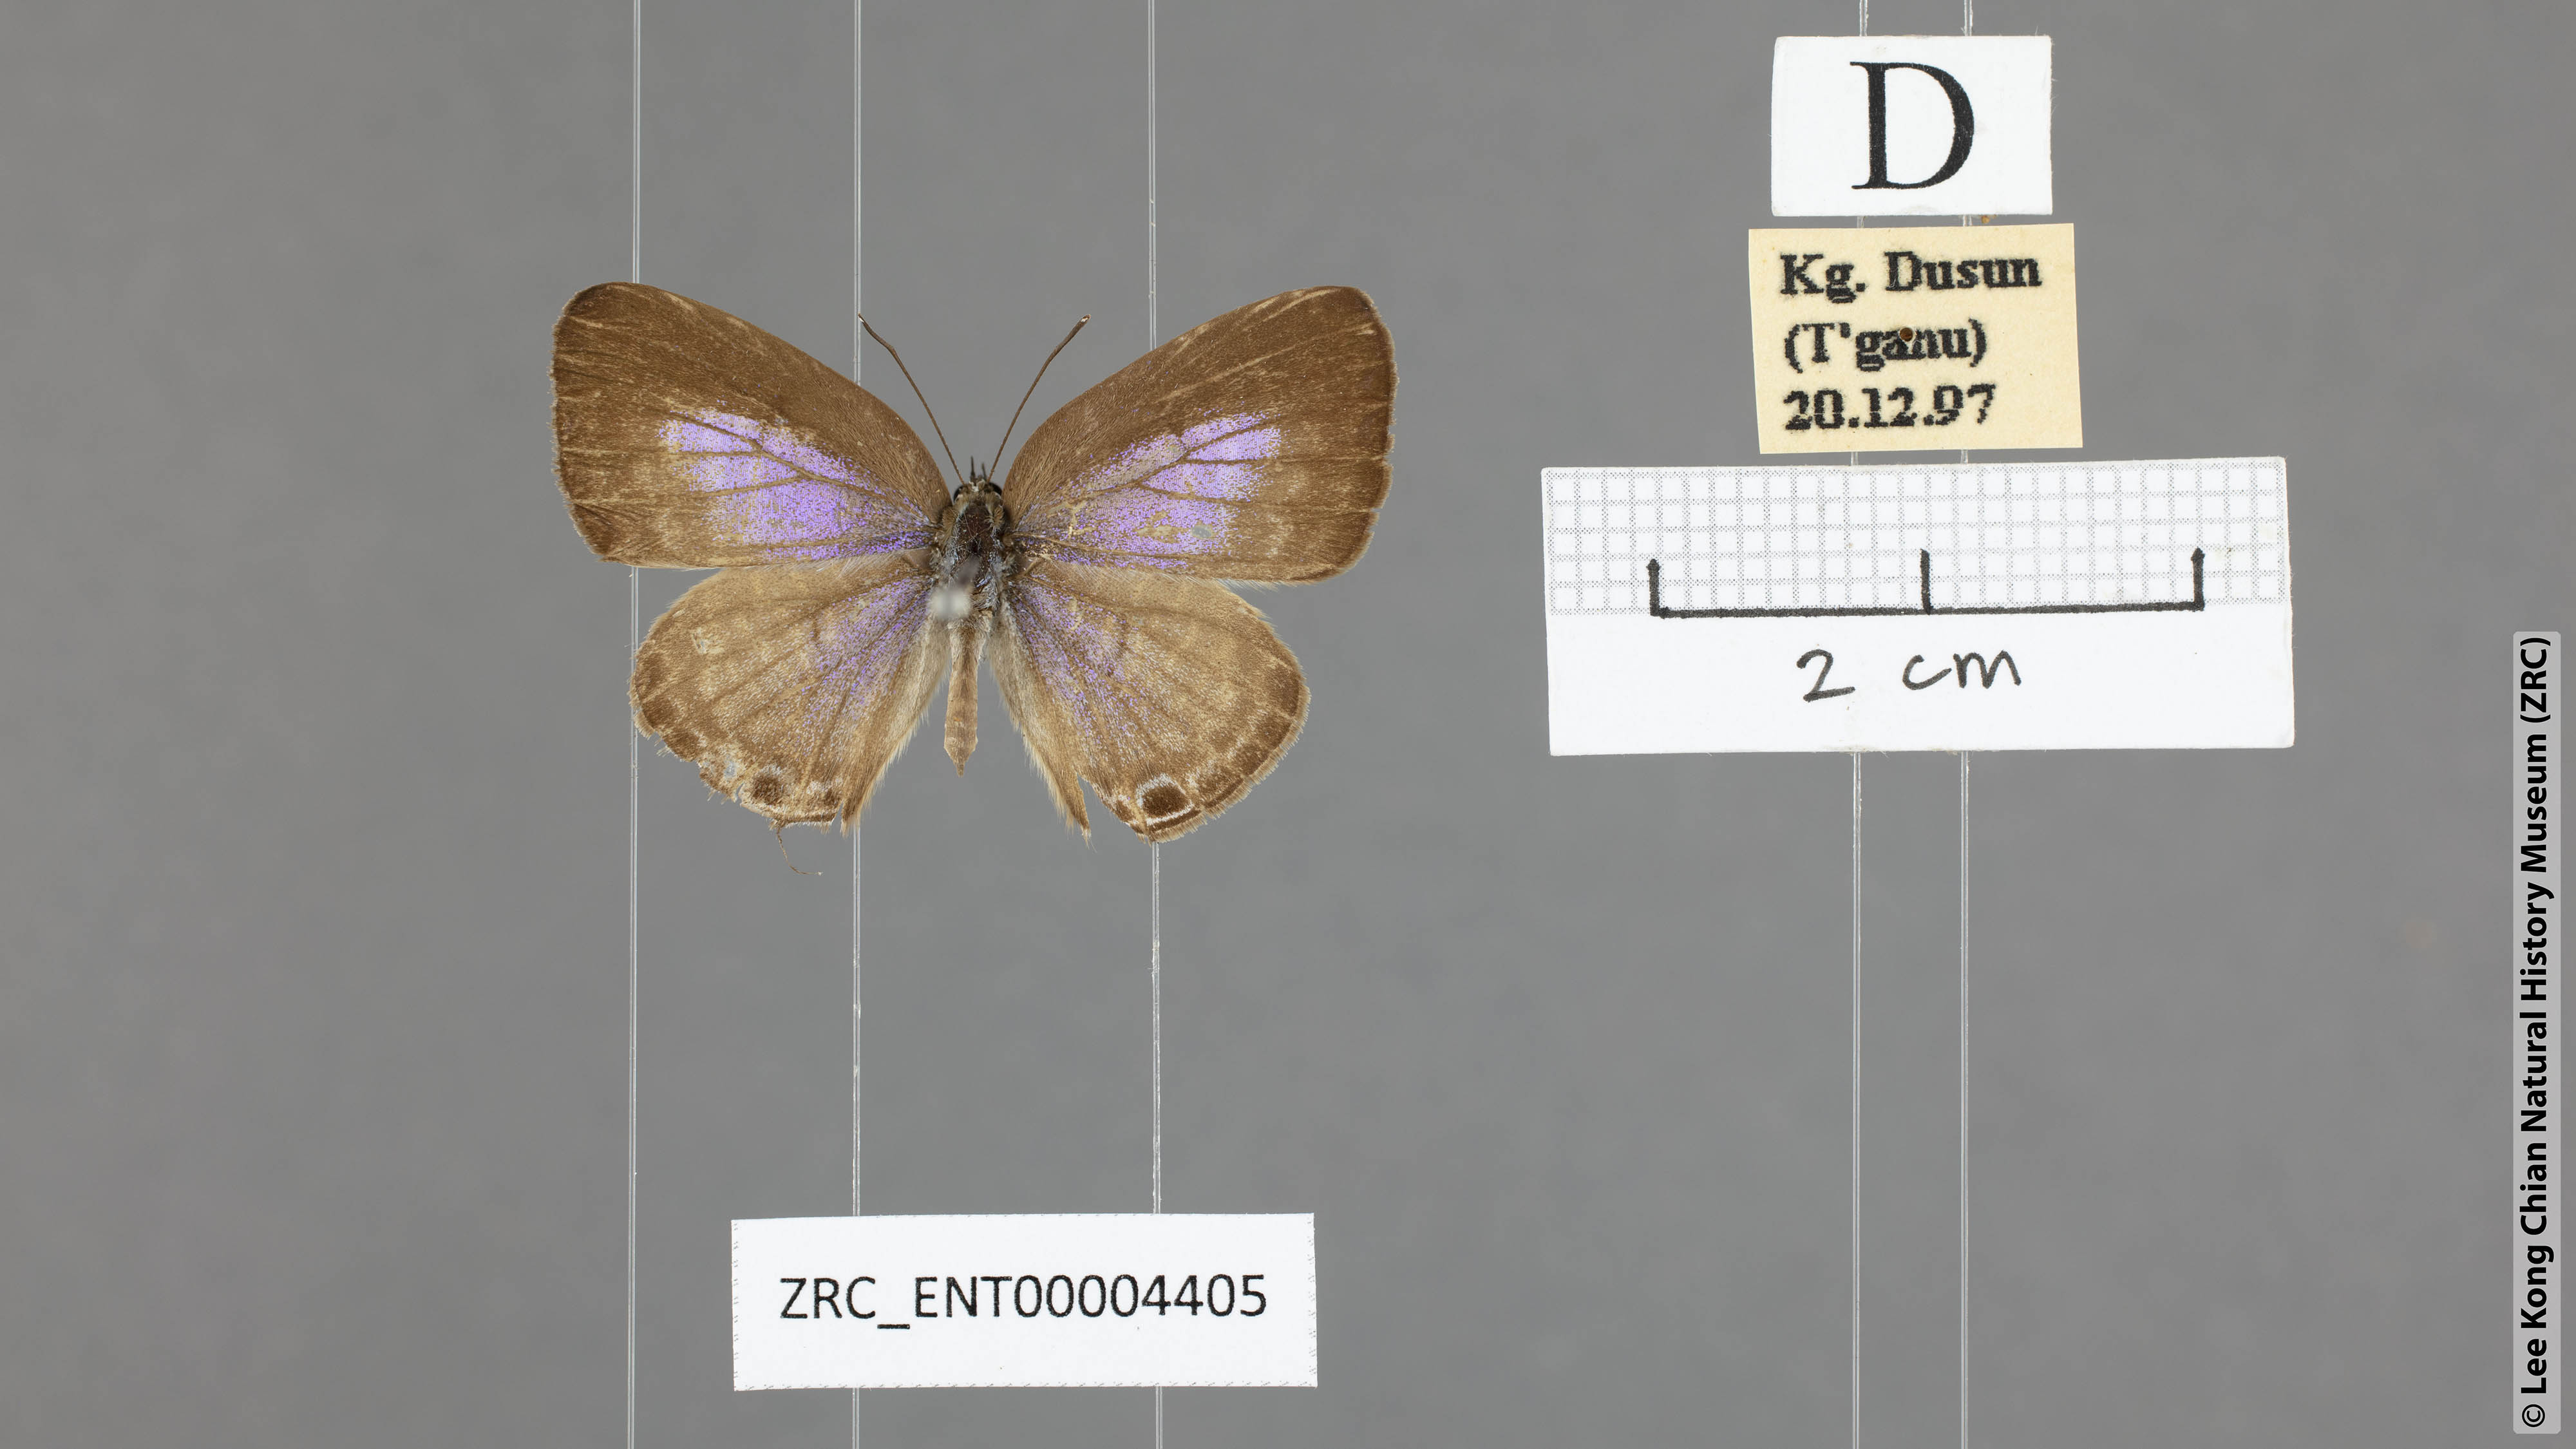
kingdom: Animalia
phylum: Arthropoda
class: Insecta
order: Lepidoptera
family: Lycaenidae
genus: Nacaduba
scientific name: Nacaduba pactolus
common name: Large fourline blue
